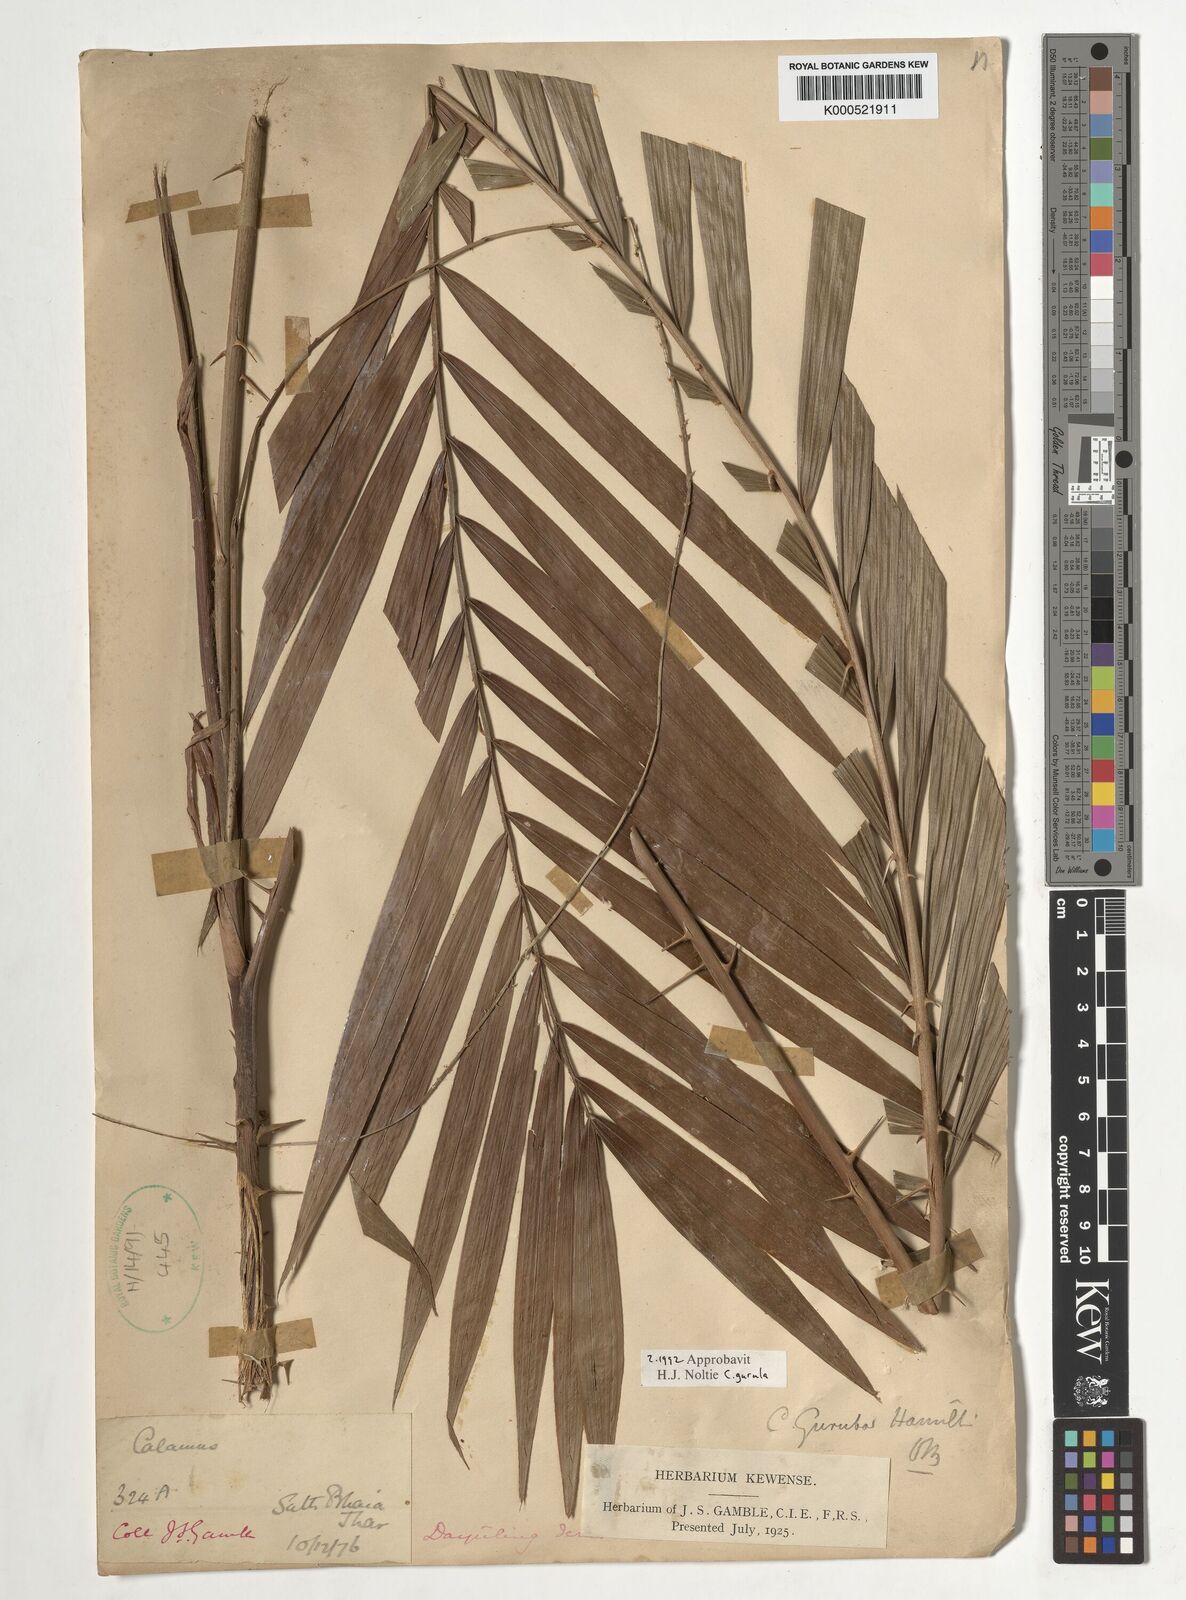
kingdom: Plantae
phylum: Tracheophyta
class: Liliopsida
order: Arecales
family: Arecaceae
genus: Calamus
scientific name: Calamus
